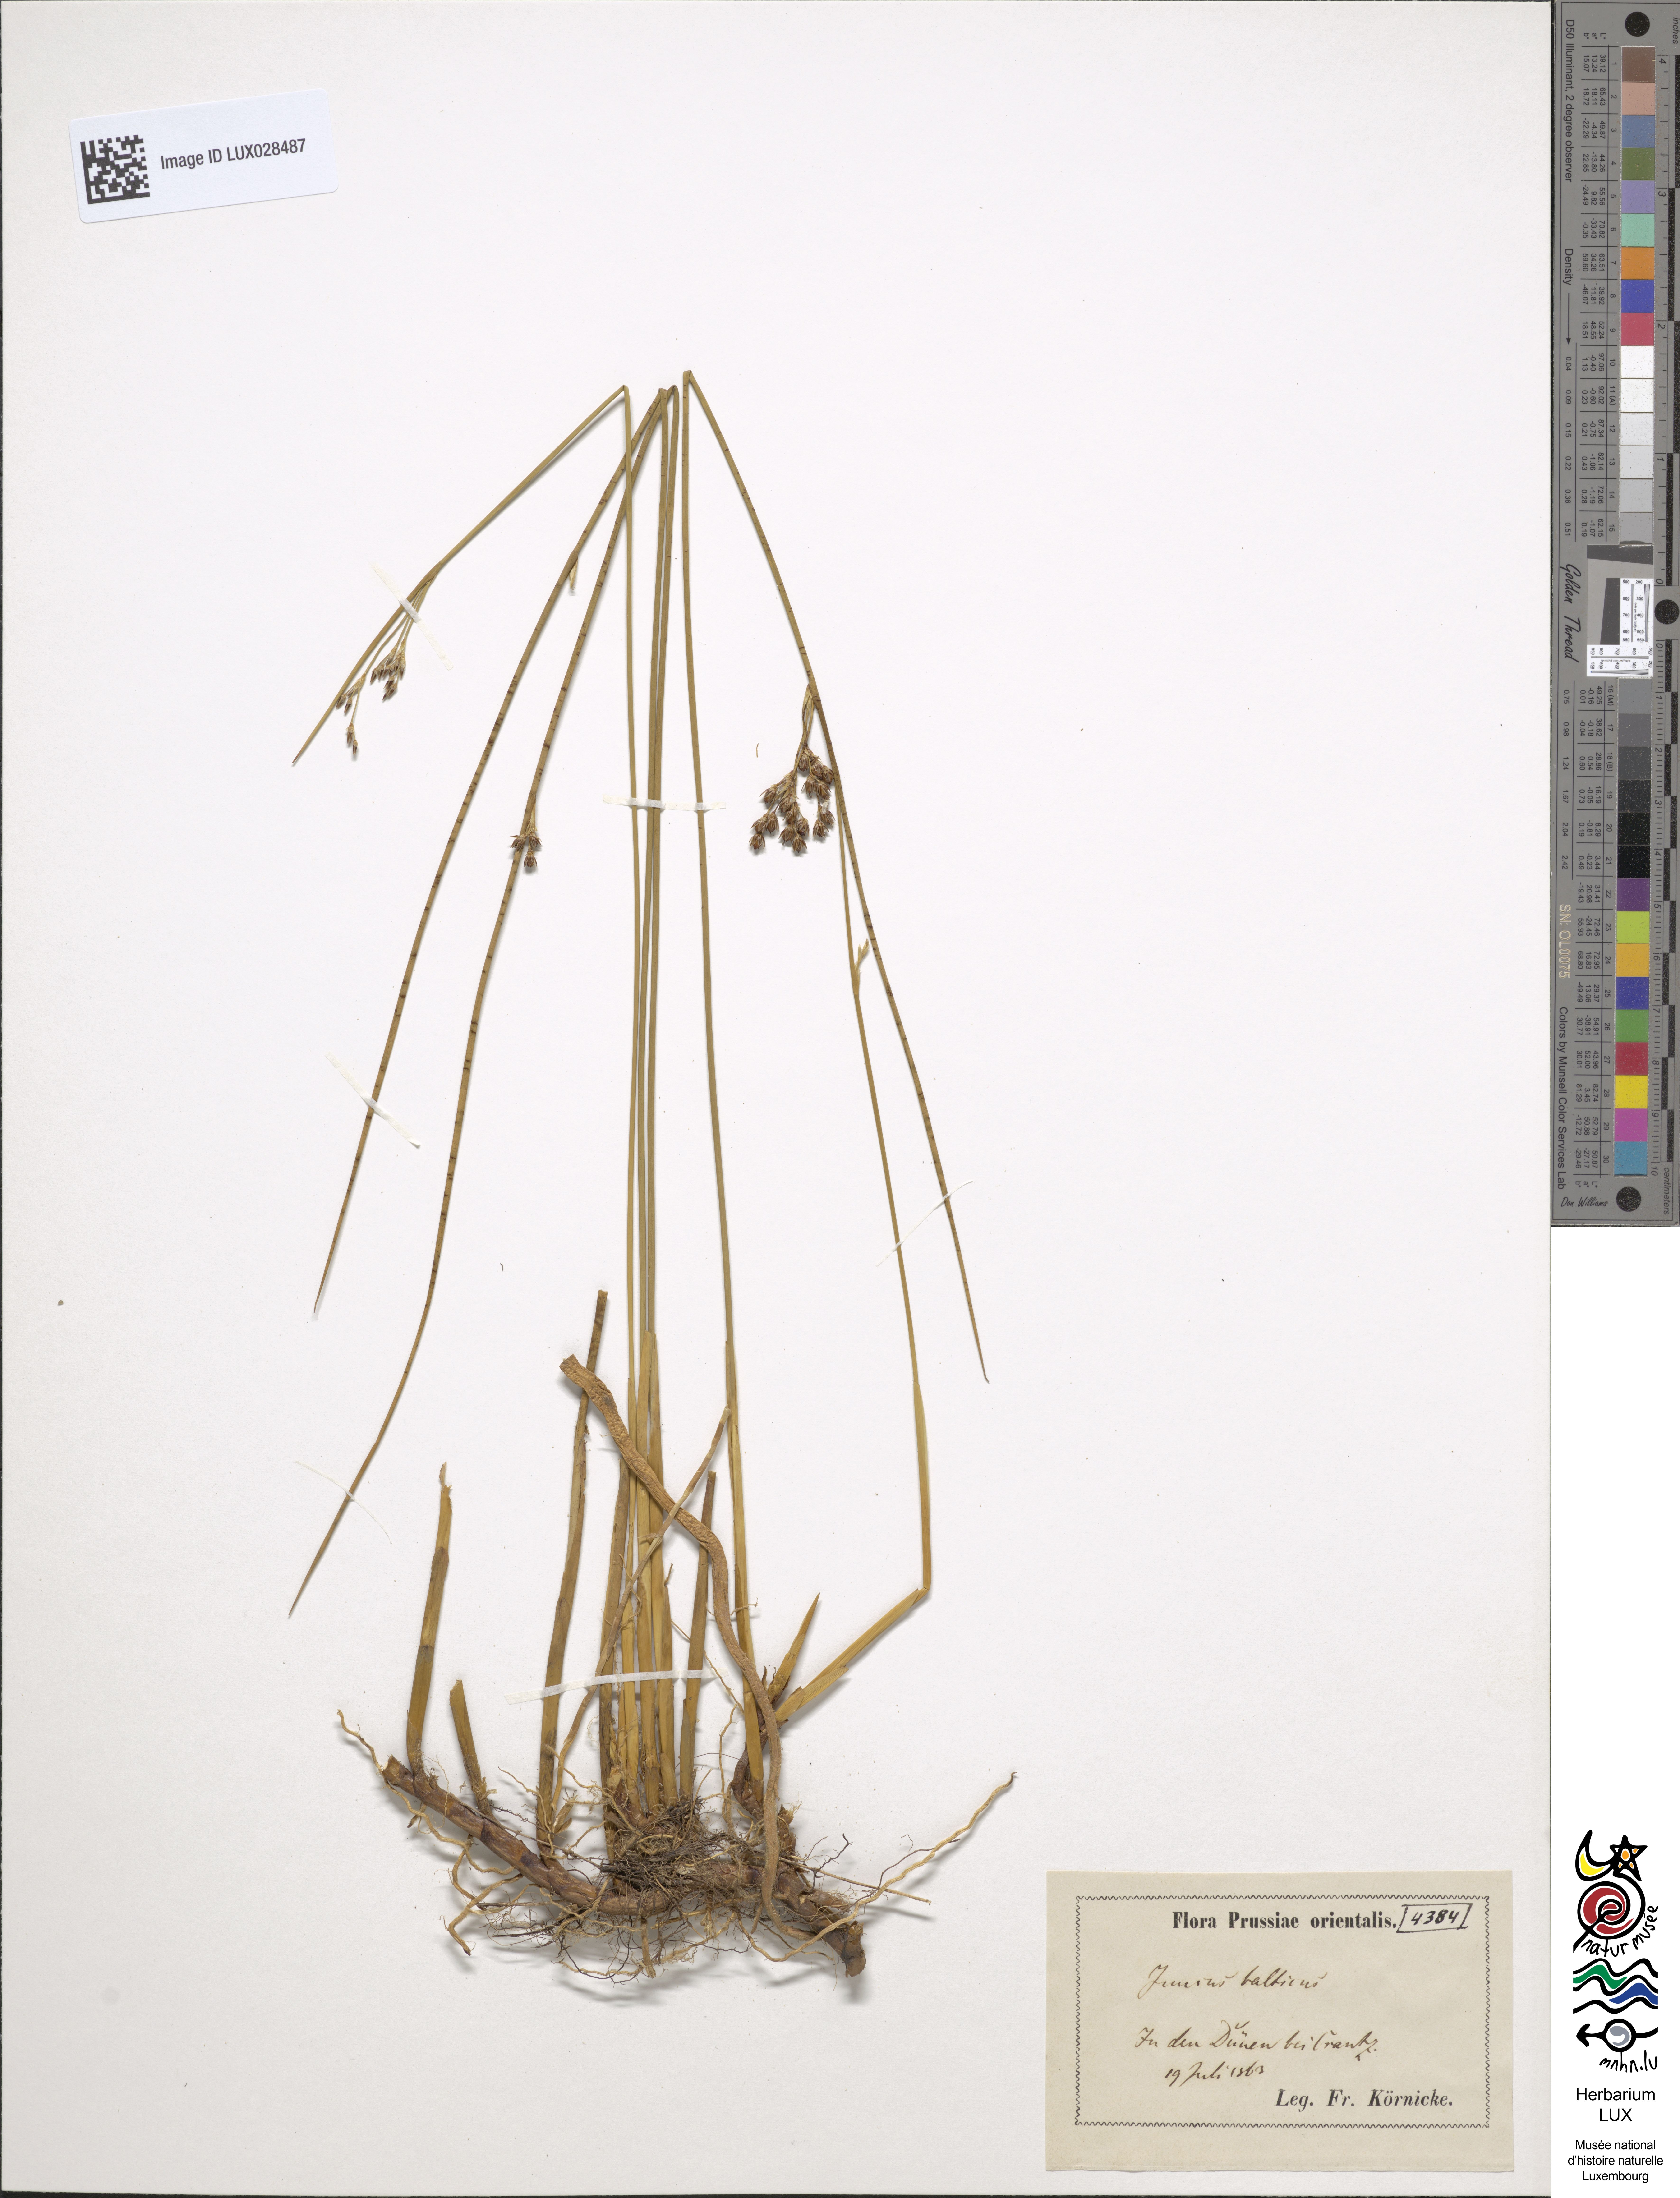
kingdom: Plantae
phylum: Tracheophyta
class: Liliopsida
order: Poales
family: Juncaceae
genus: Juncus
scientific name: Juncus balticus
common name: Baltic rush
